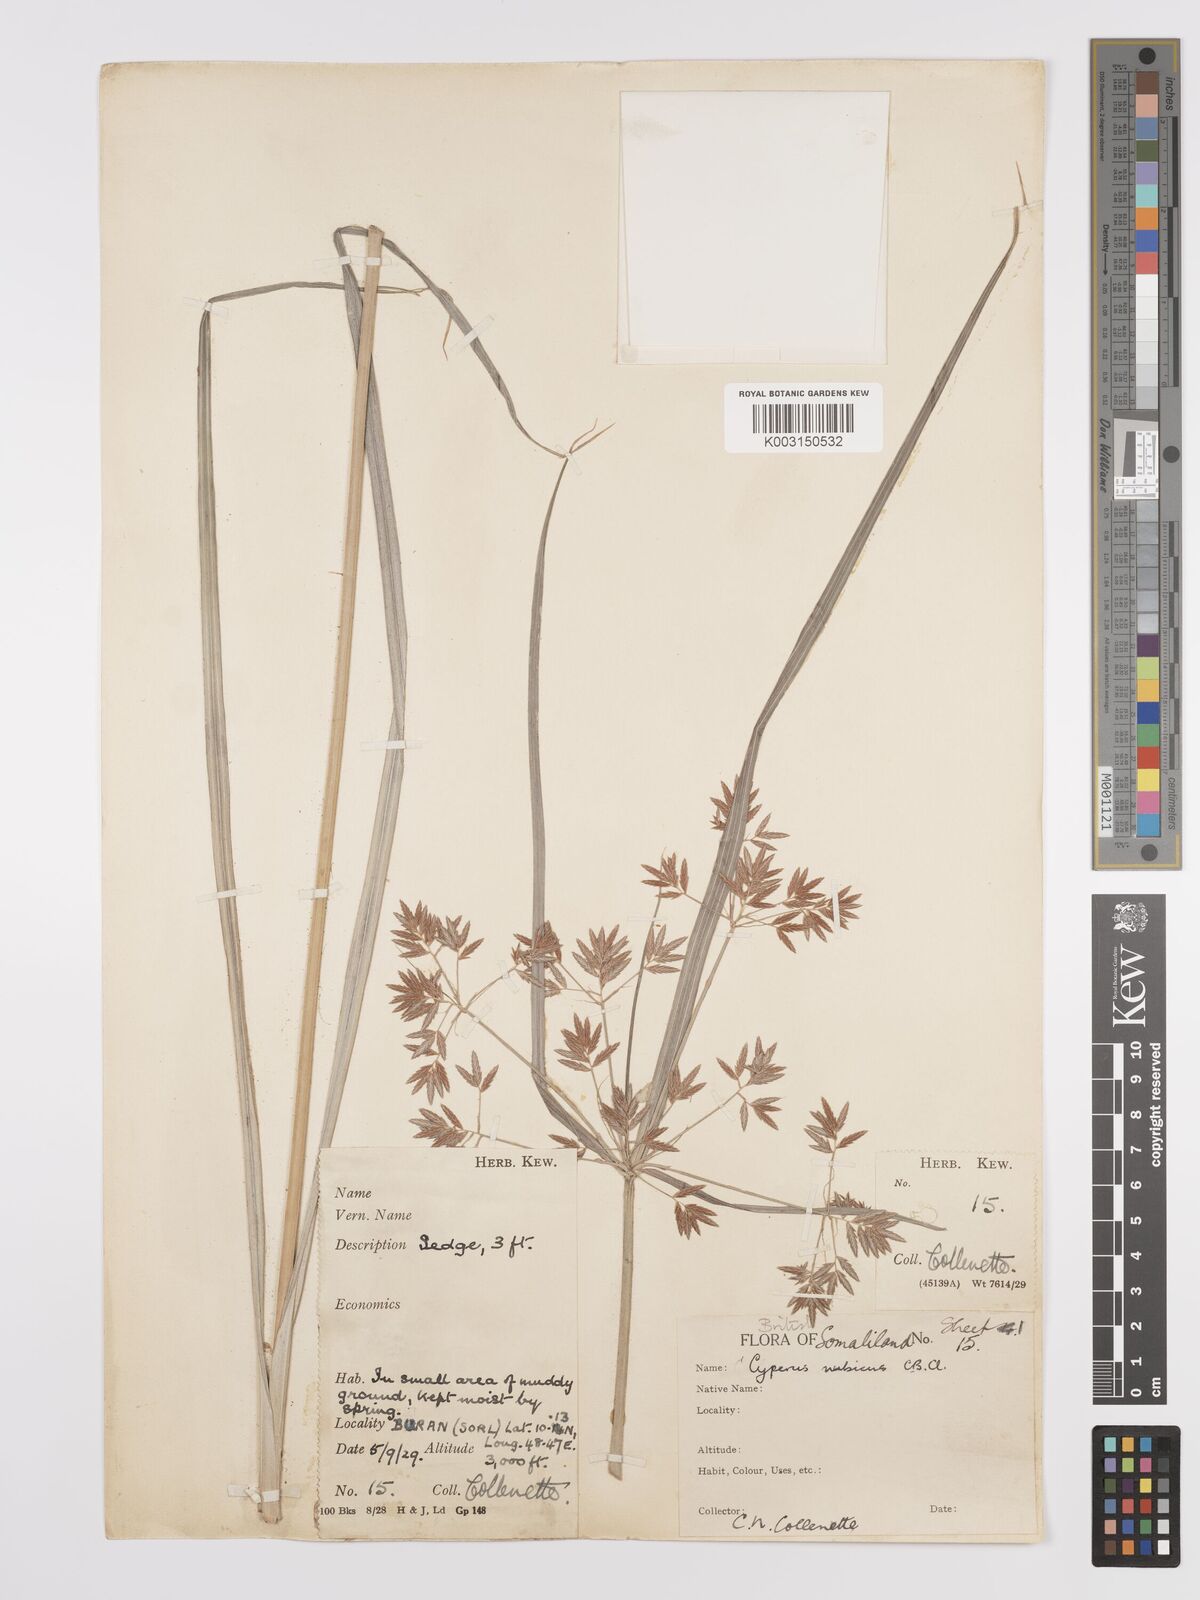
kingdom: Plantae
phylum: Tracheophyta
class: Liliopsida
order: Poales
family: Cyperaceae
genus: Cyperus
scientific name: Cyperus bifax
